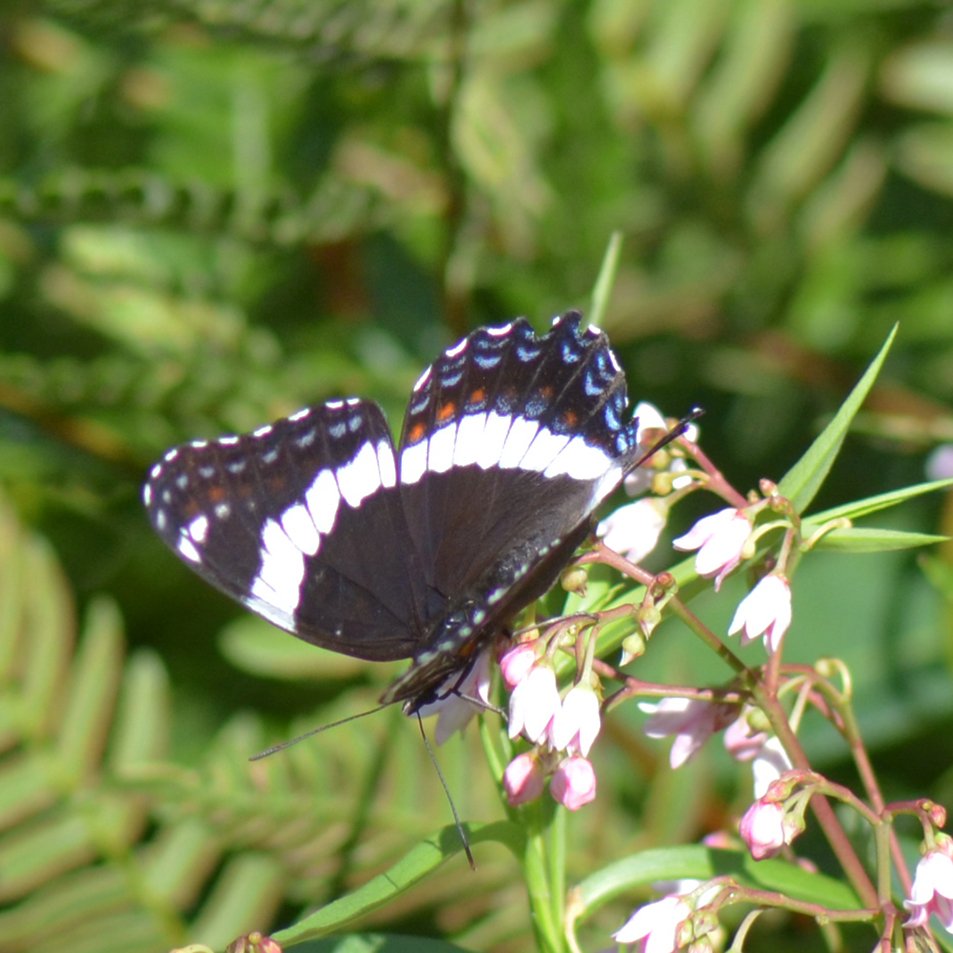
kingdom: Animalia
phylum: Arthropoda
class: Insecta
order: Lepidoptera
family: Nymphalidae
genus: Limenitis
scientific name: Limenitis arthemis
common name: Red-spotted Admiral
